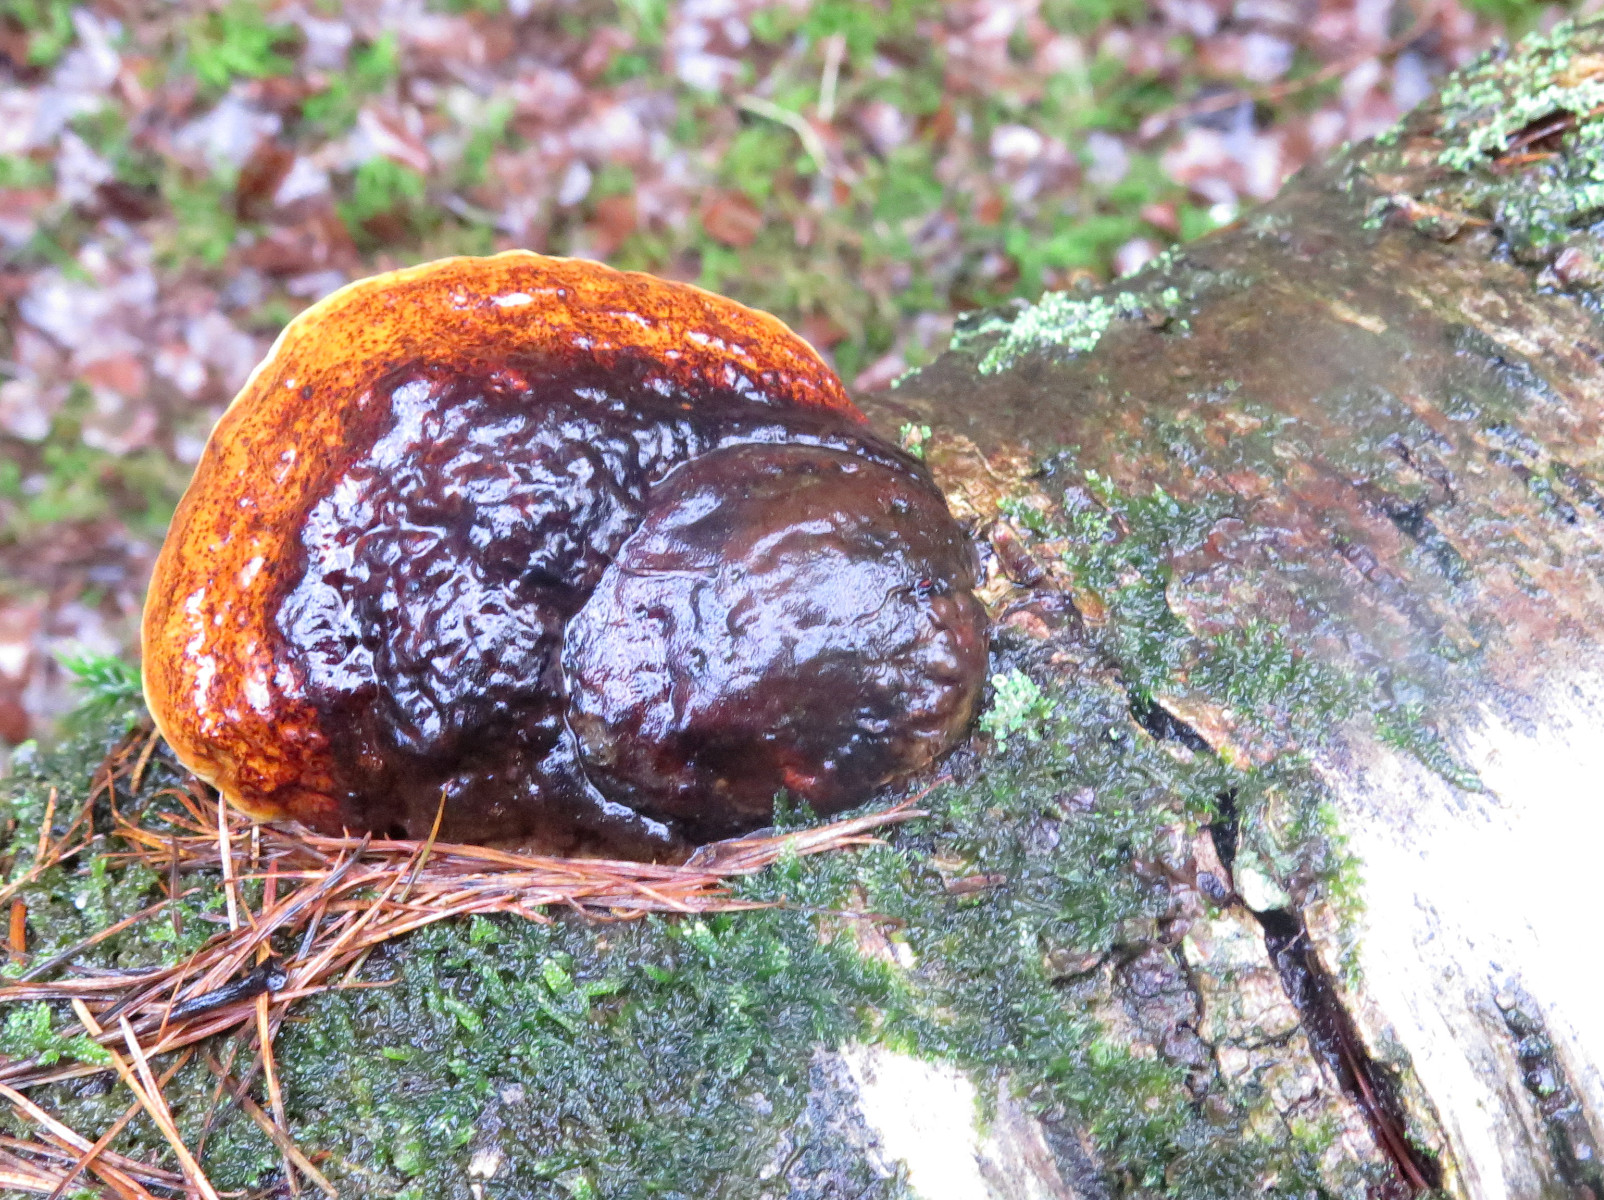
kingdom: Fungi
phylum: Basidiomycota
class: Agaricomycetes
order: Polyporales
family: Fomitopsidaceae
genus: Fomitopsis
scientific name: Fomitopsis pinicola
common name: randbæltet hovporesvamp
